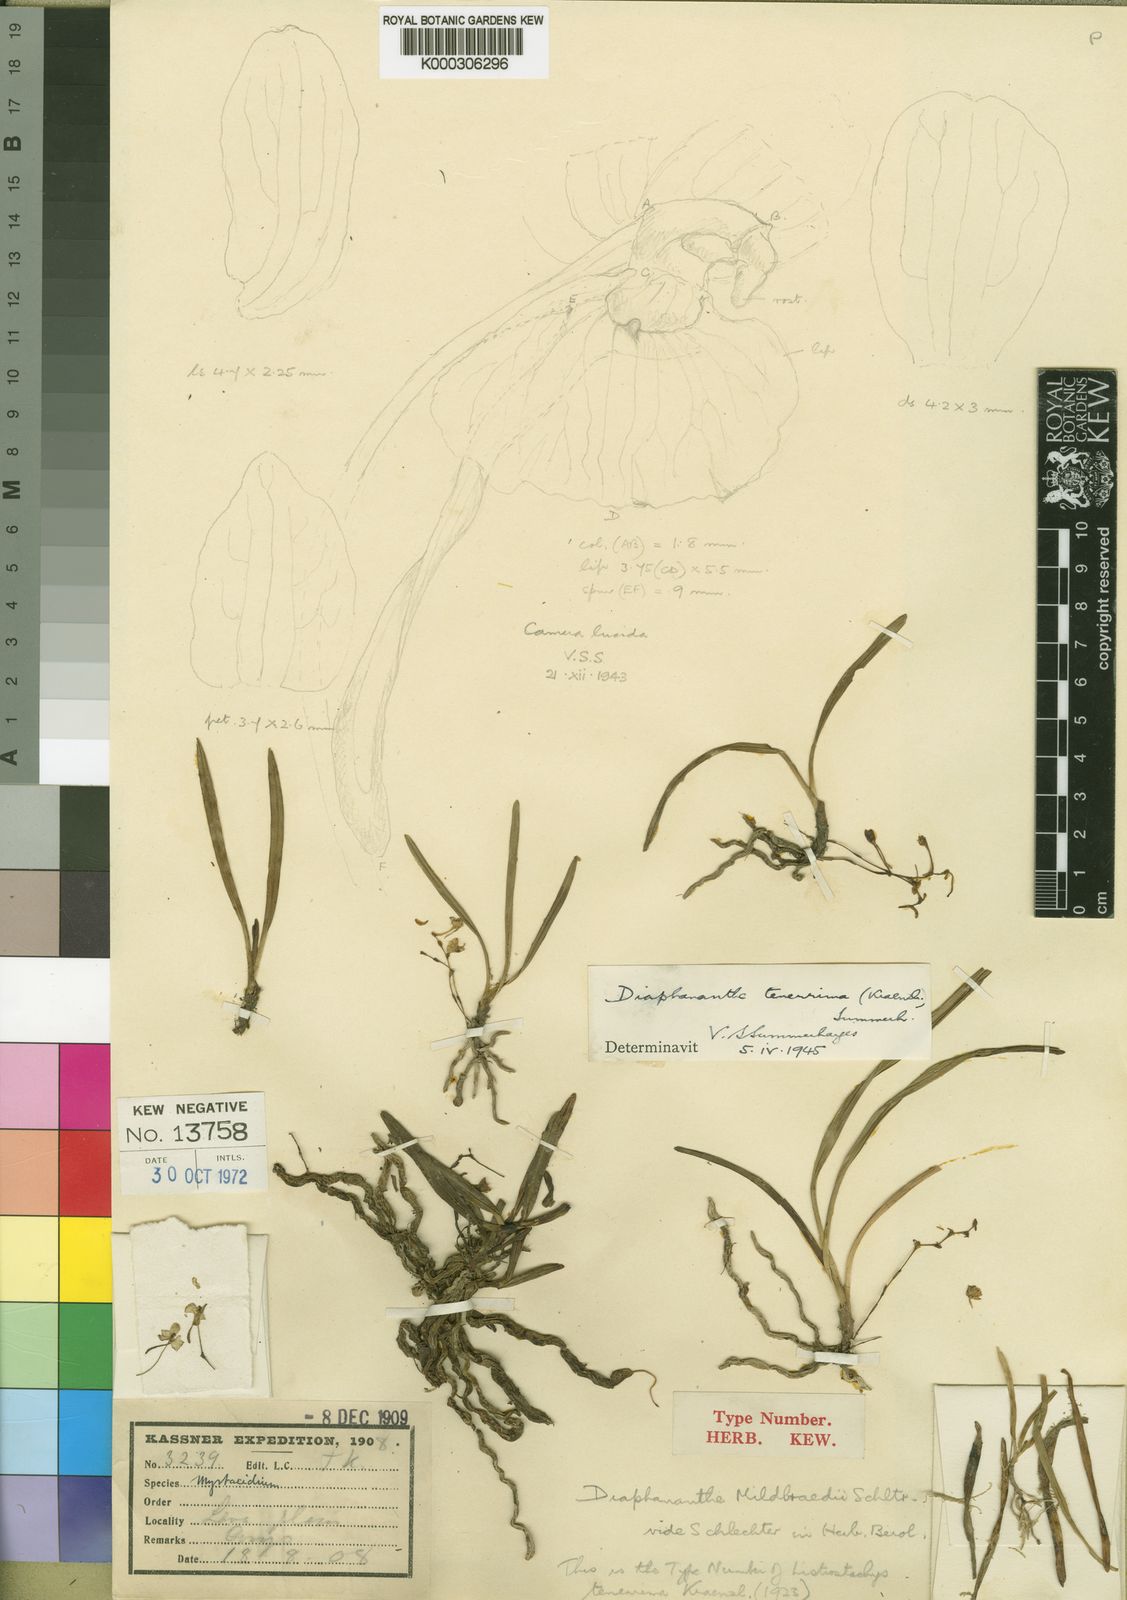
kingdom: Plantae
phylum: Tracheophyta
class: Liliopsida
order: Asparagales
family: Orchidaceae
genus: Rhipidoglossum
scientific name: Rhipidoglossum mildbraedii
